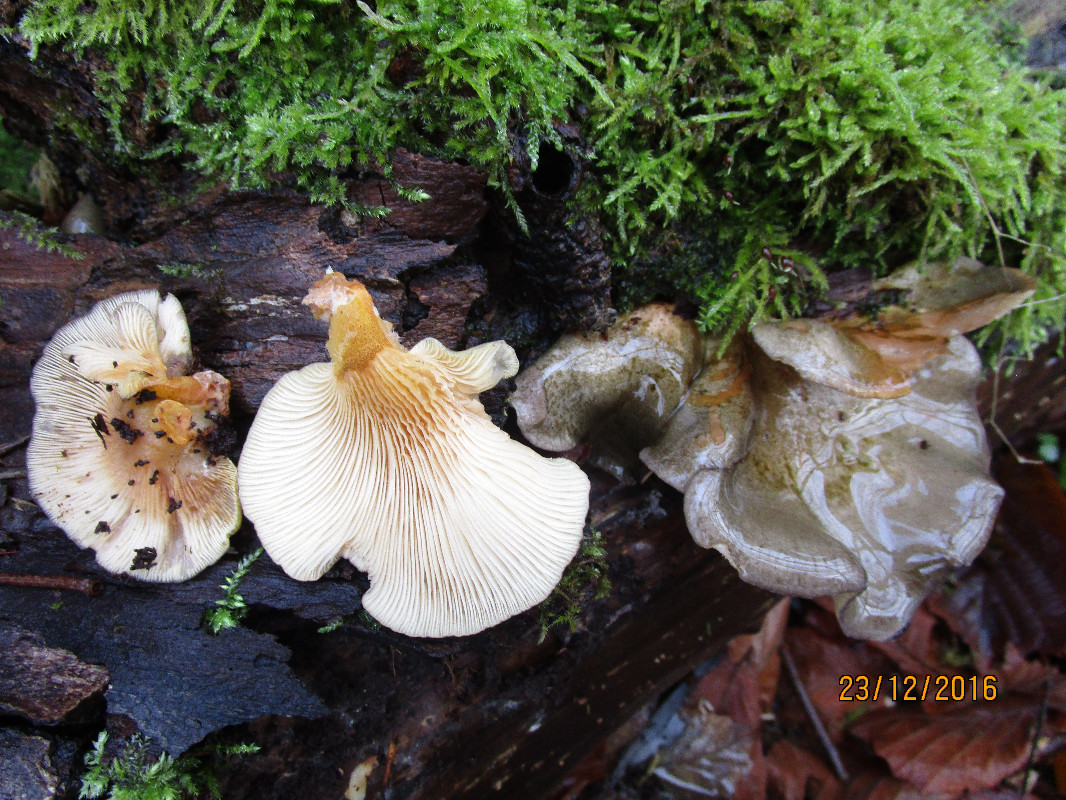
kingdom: Fungi
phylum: Basidiomycota
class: Agaricomycetes
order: Agaricales
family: Sarcomyxaceae
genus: Sarcomyxa
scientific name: Sarcomyxa serotina
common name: gummihat
